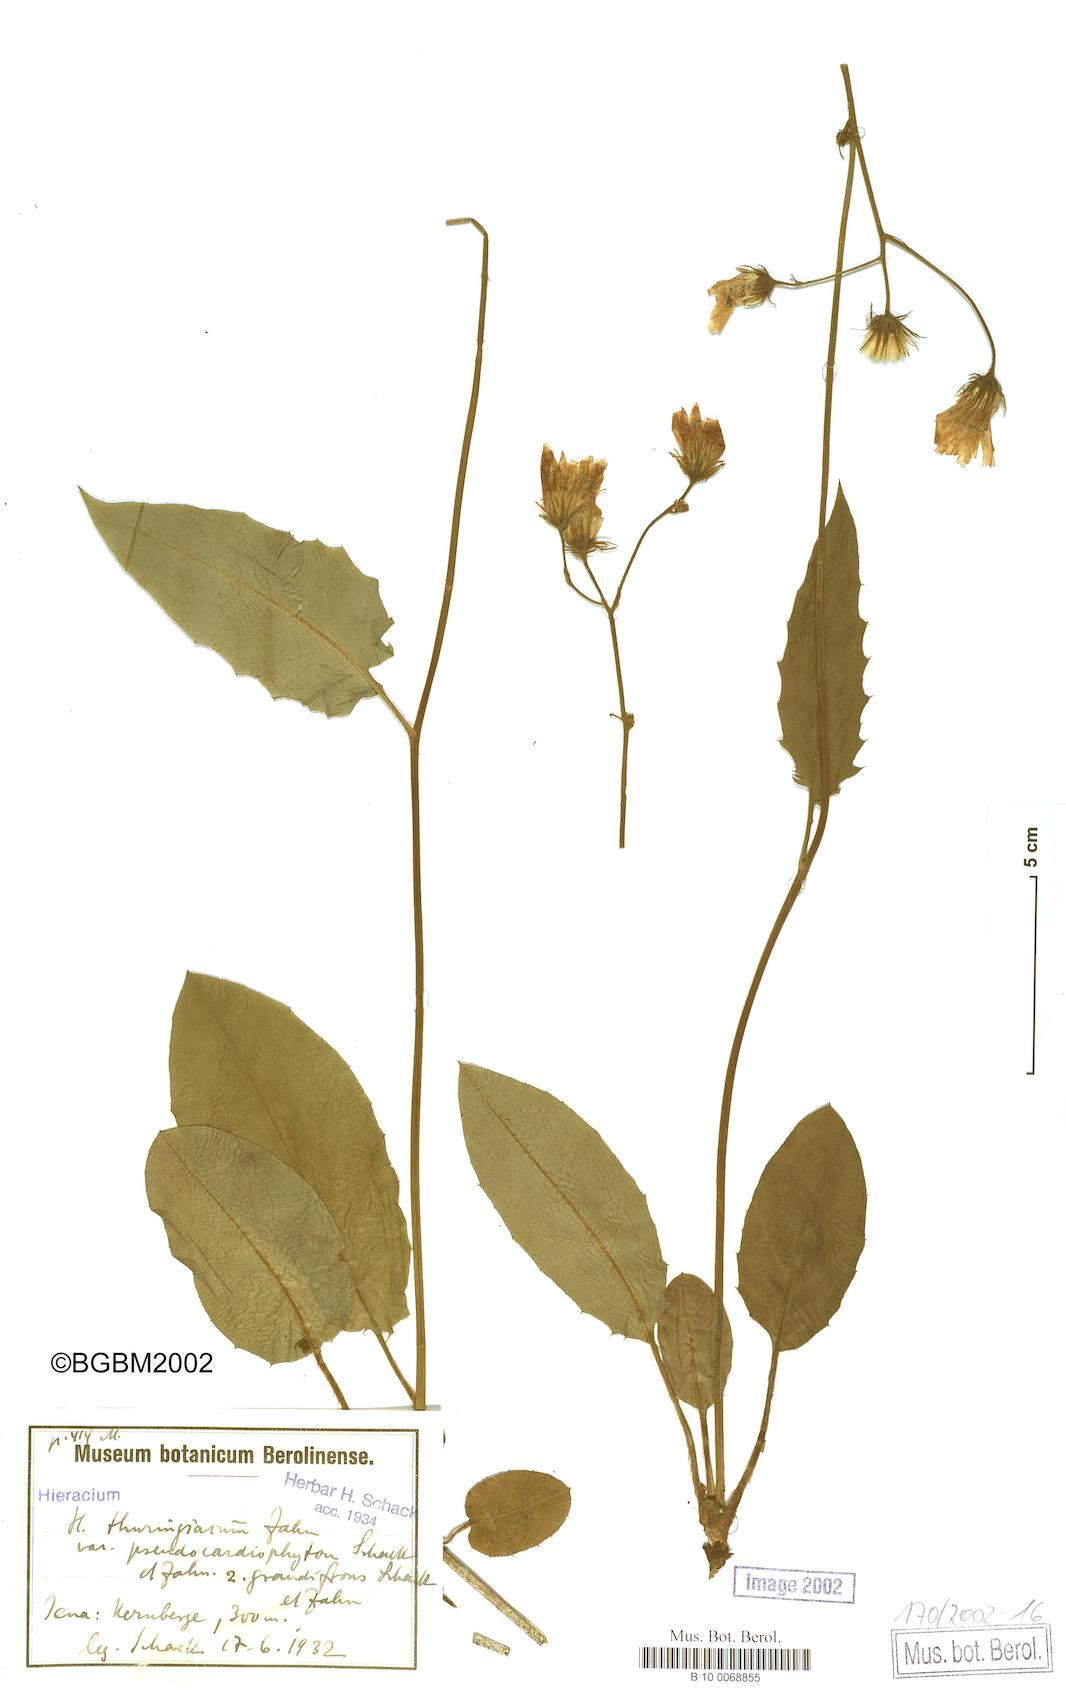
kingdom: Plantae
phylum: Tracheophyta
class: Magnoliopsida
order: Asterales
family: Asteraceae
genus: Hieracium
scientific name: Hieracium thuringiacum
